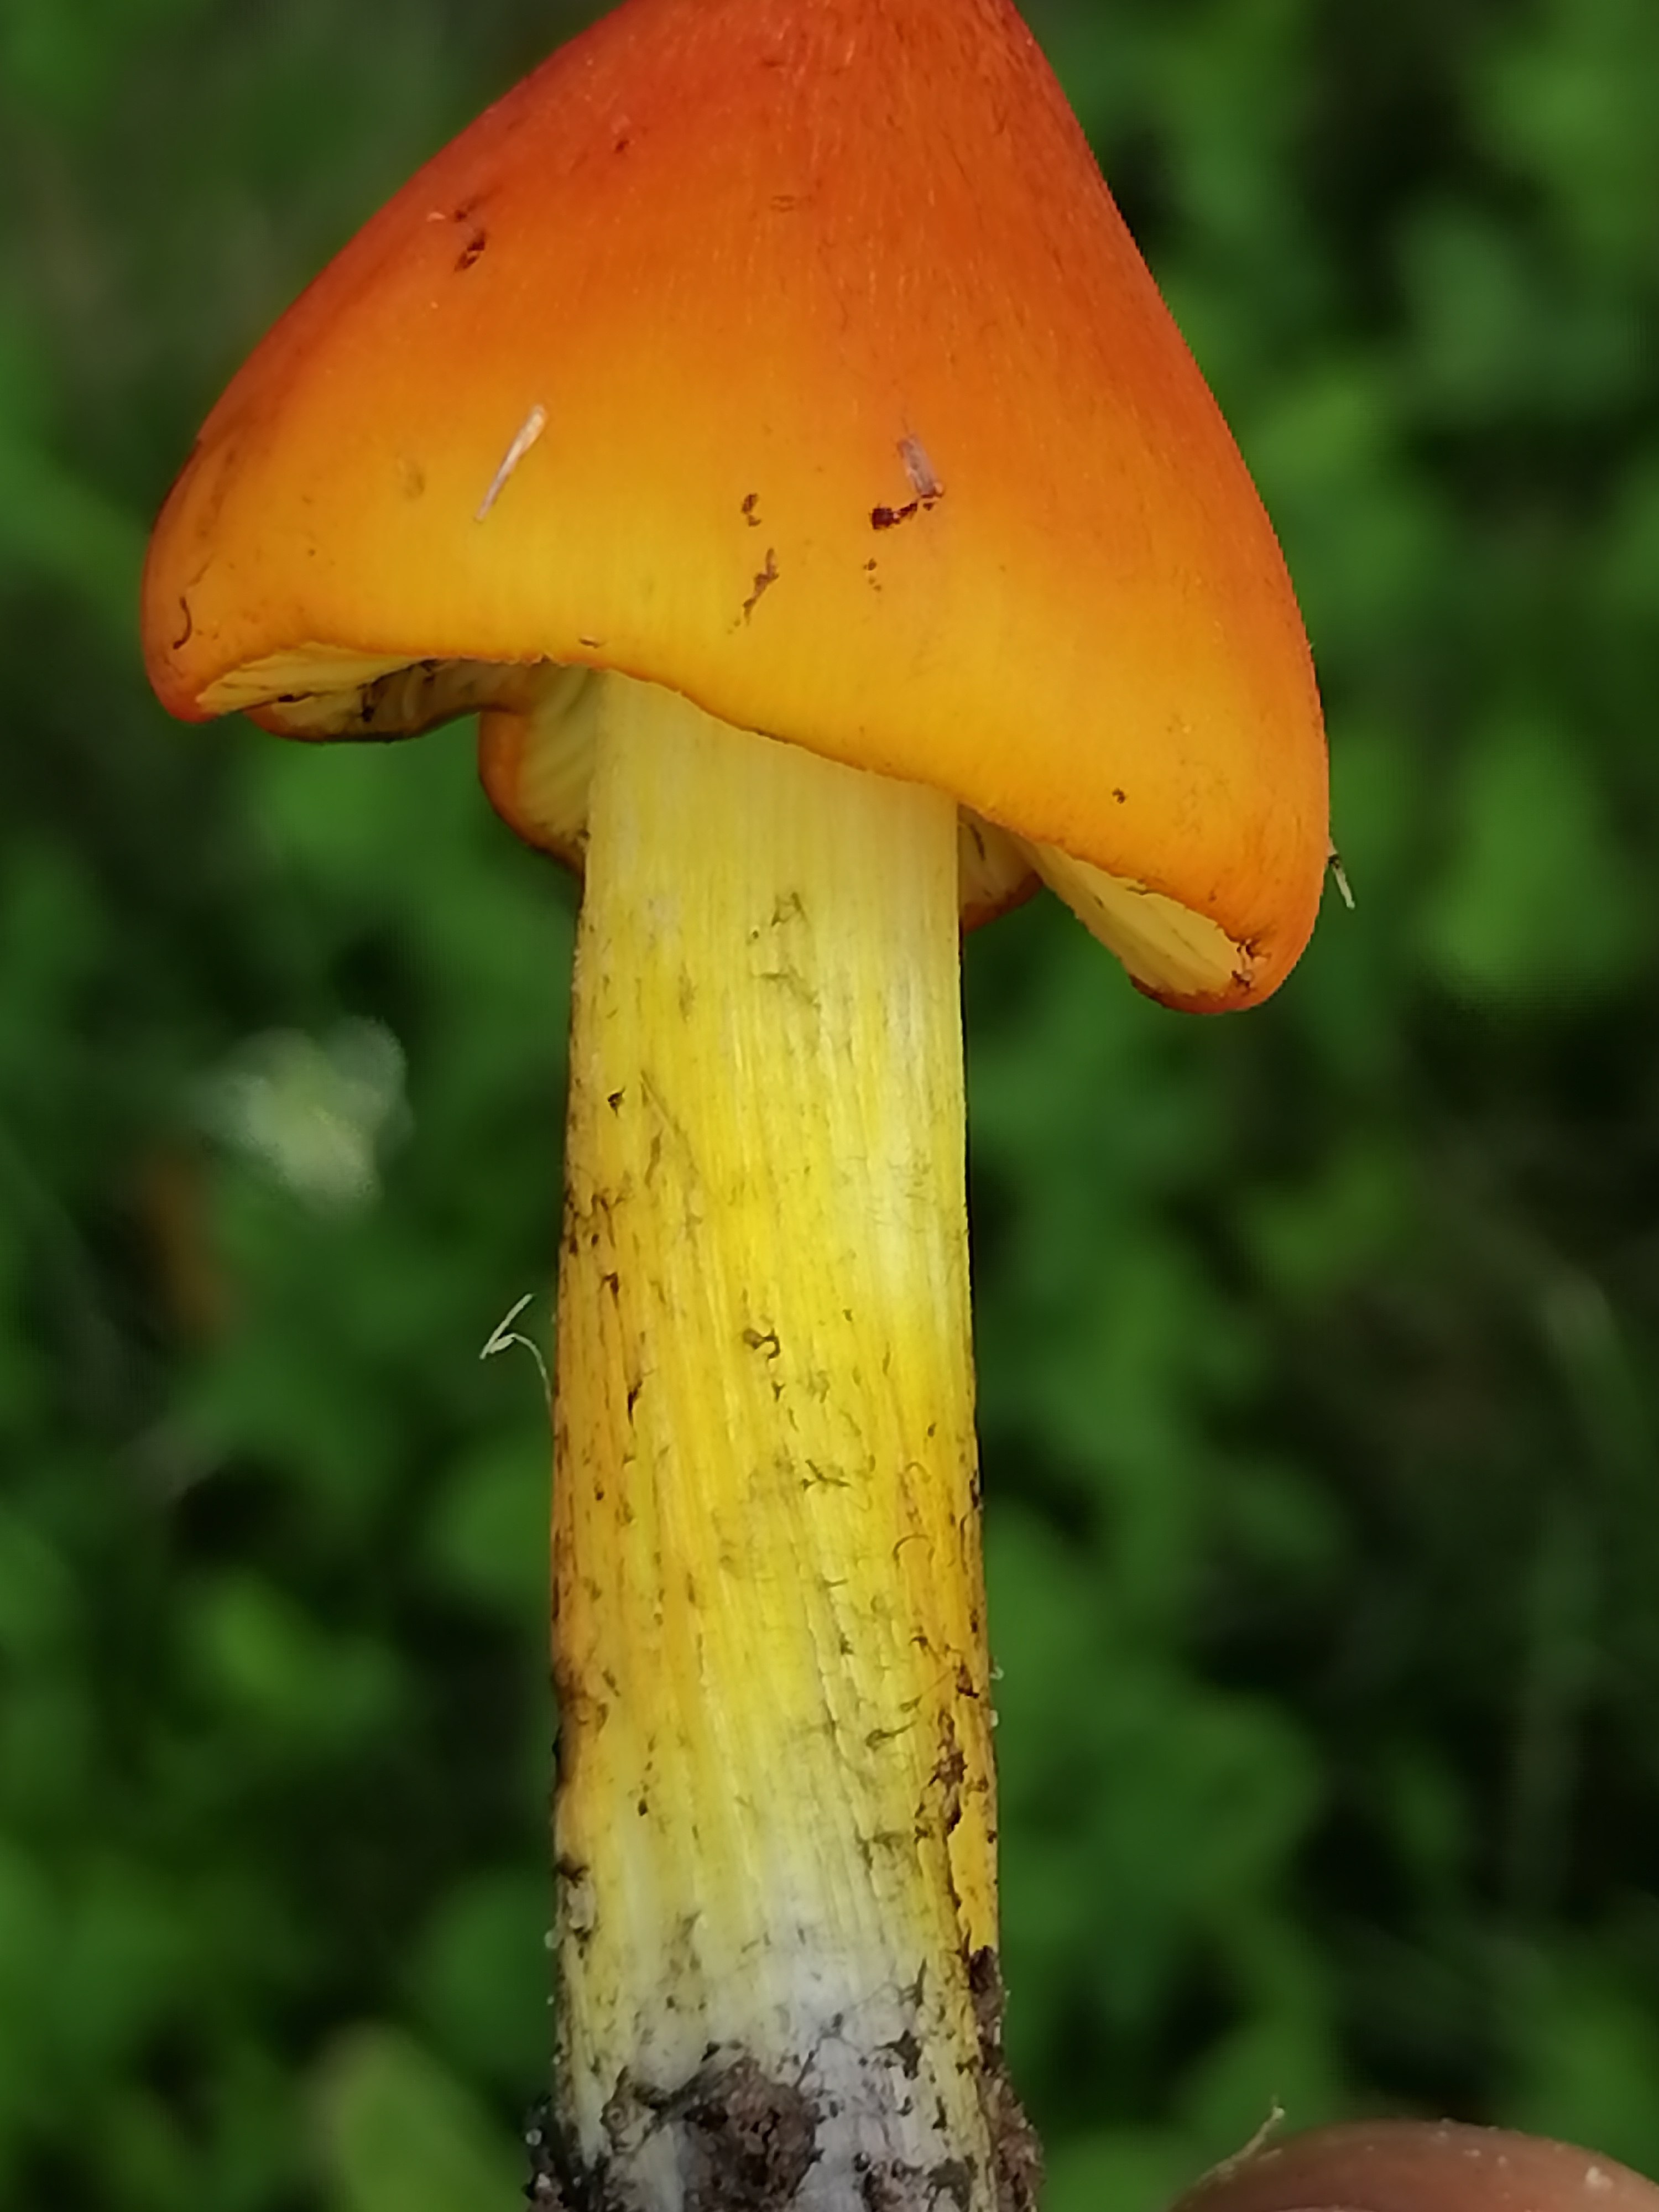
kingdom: Fungi
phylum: Basidiomycota
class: Agaricomycetes
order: Agaricales
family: Hygrophoraceae
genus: Hygrocybe
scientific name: Hygrocybe conica
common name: kegle-vokshat
